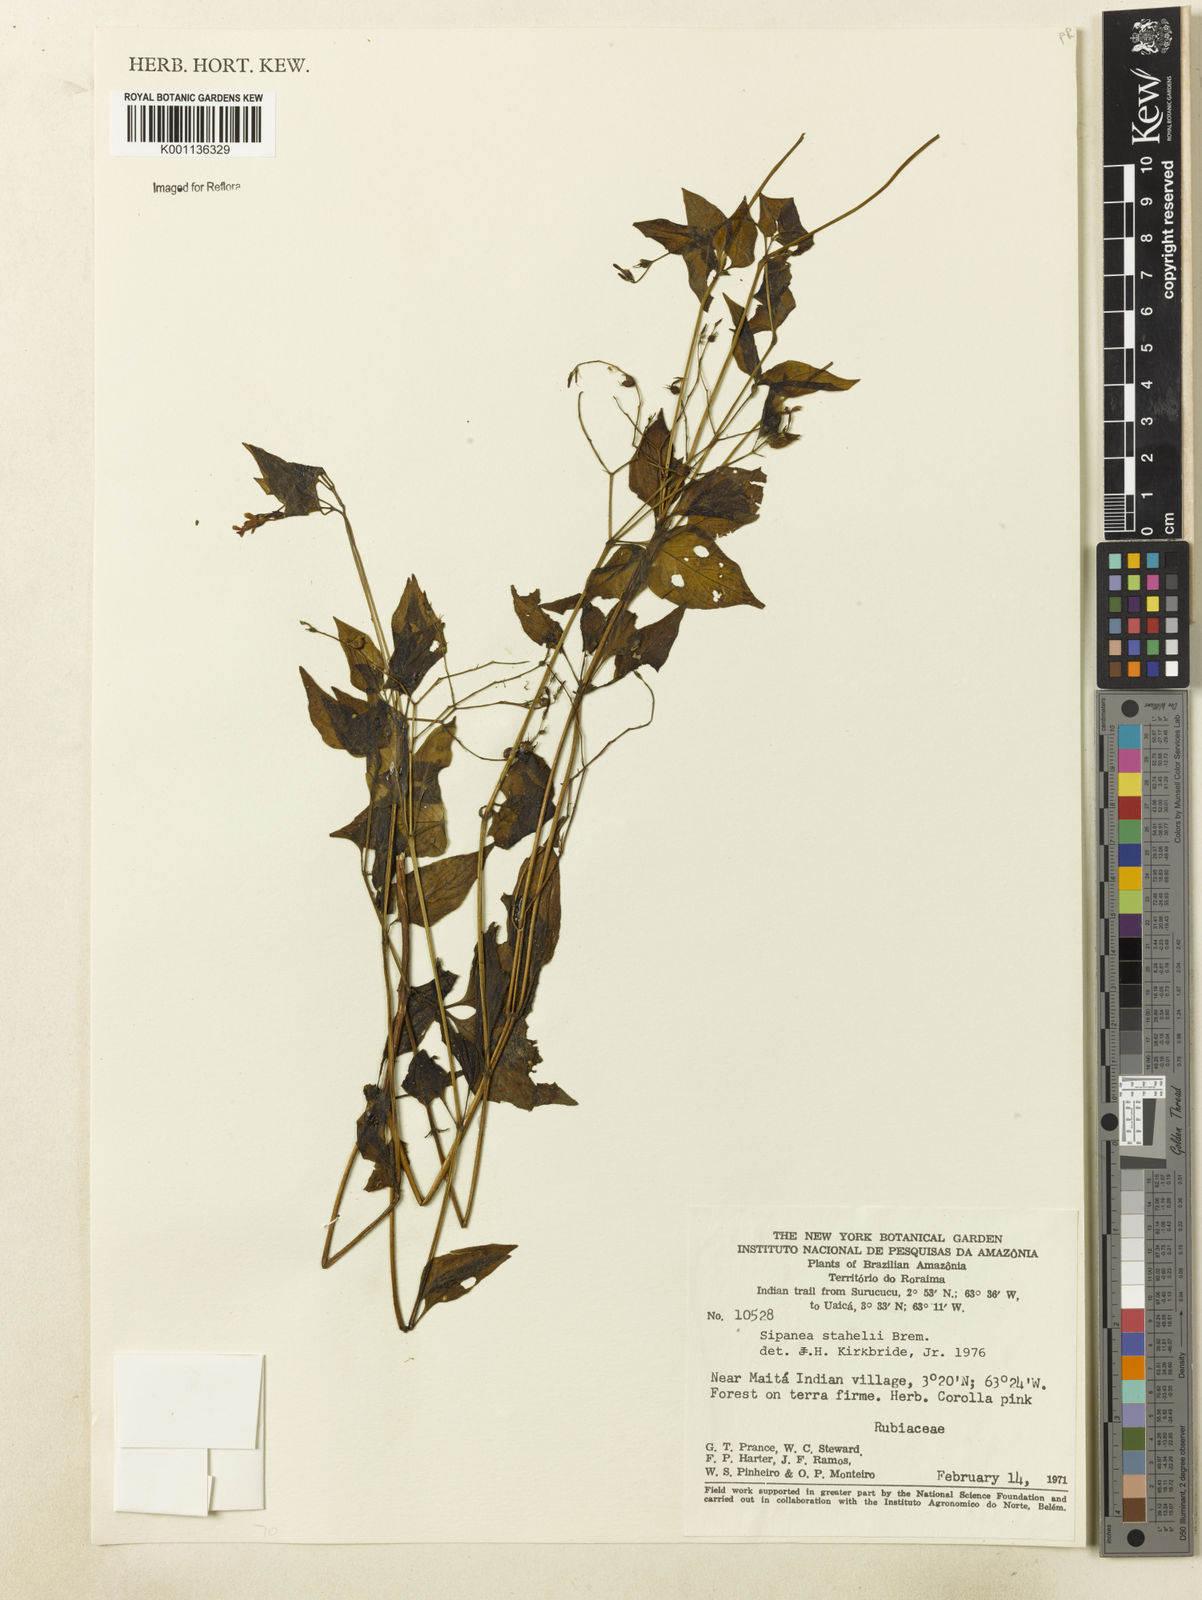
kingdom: Plantae
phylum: Tracheophyta
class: Magnoliopsida
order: Gentianales
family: Rubiaceae
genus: Sipanea
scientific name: Sipanea stahelii
